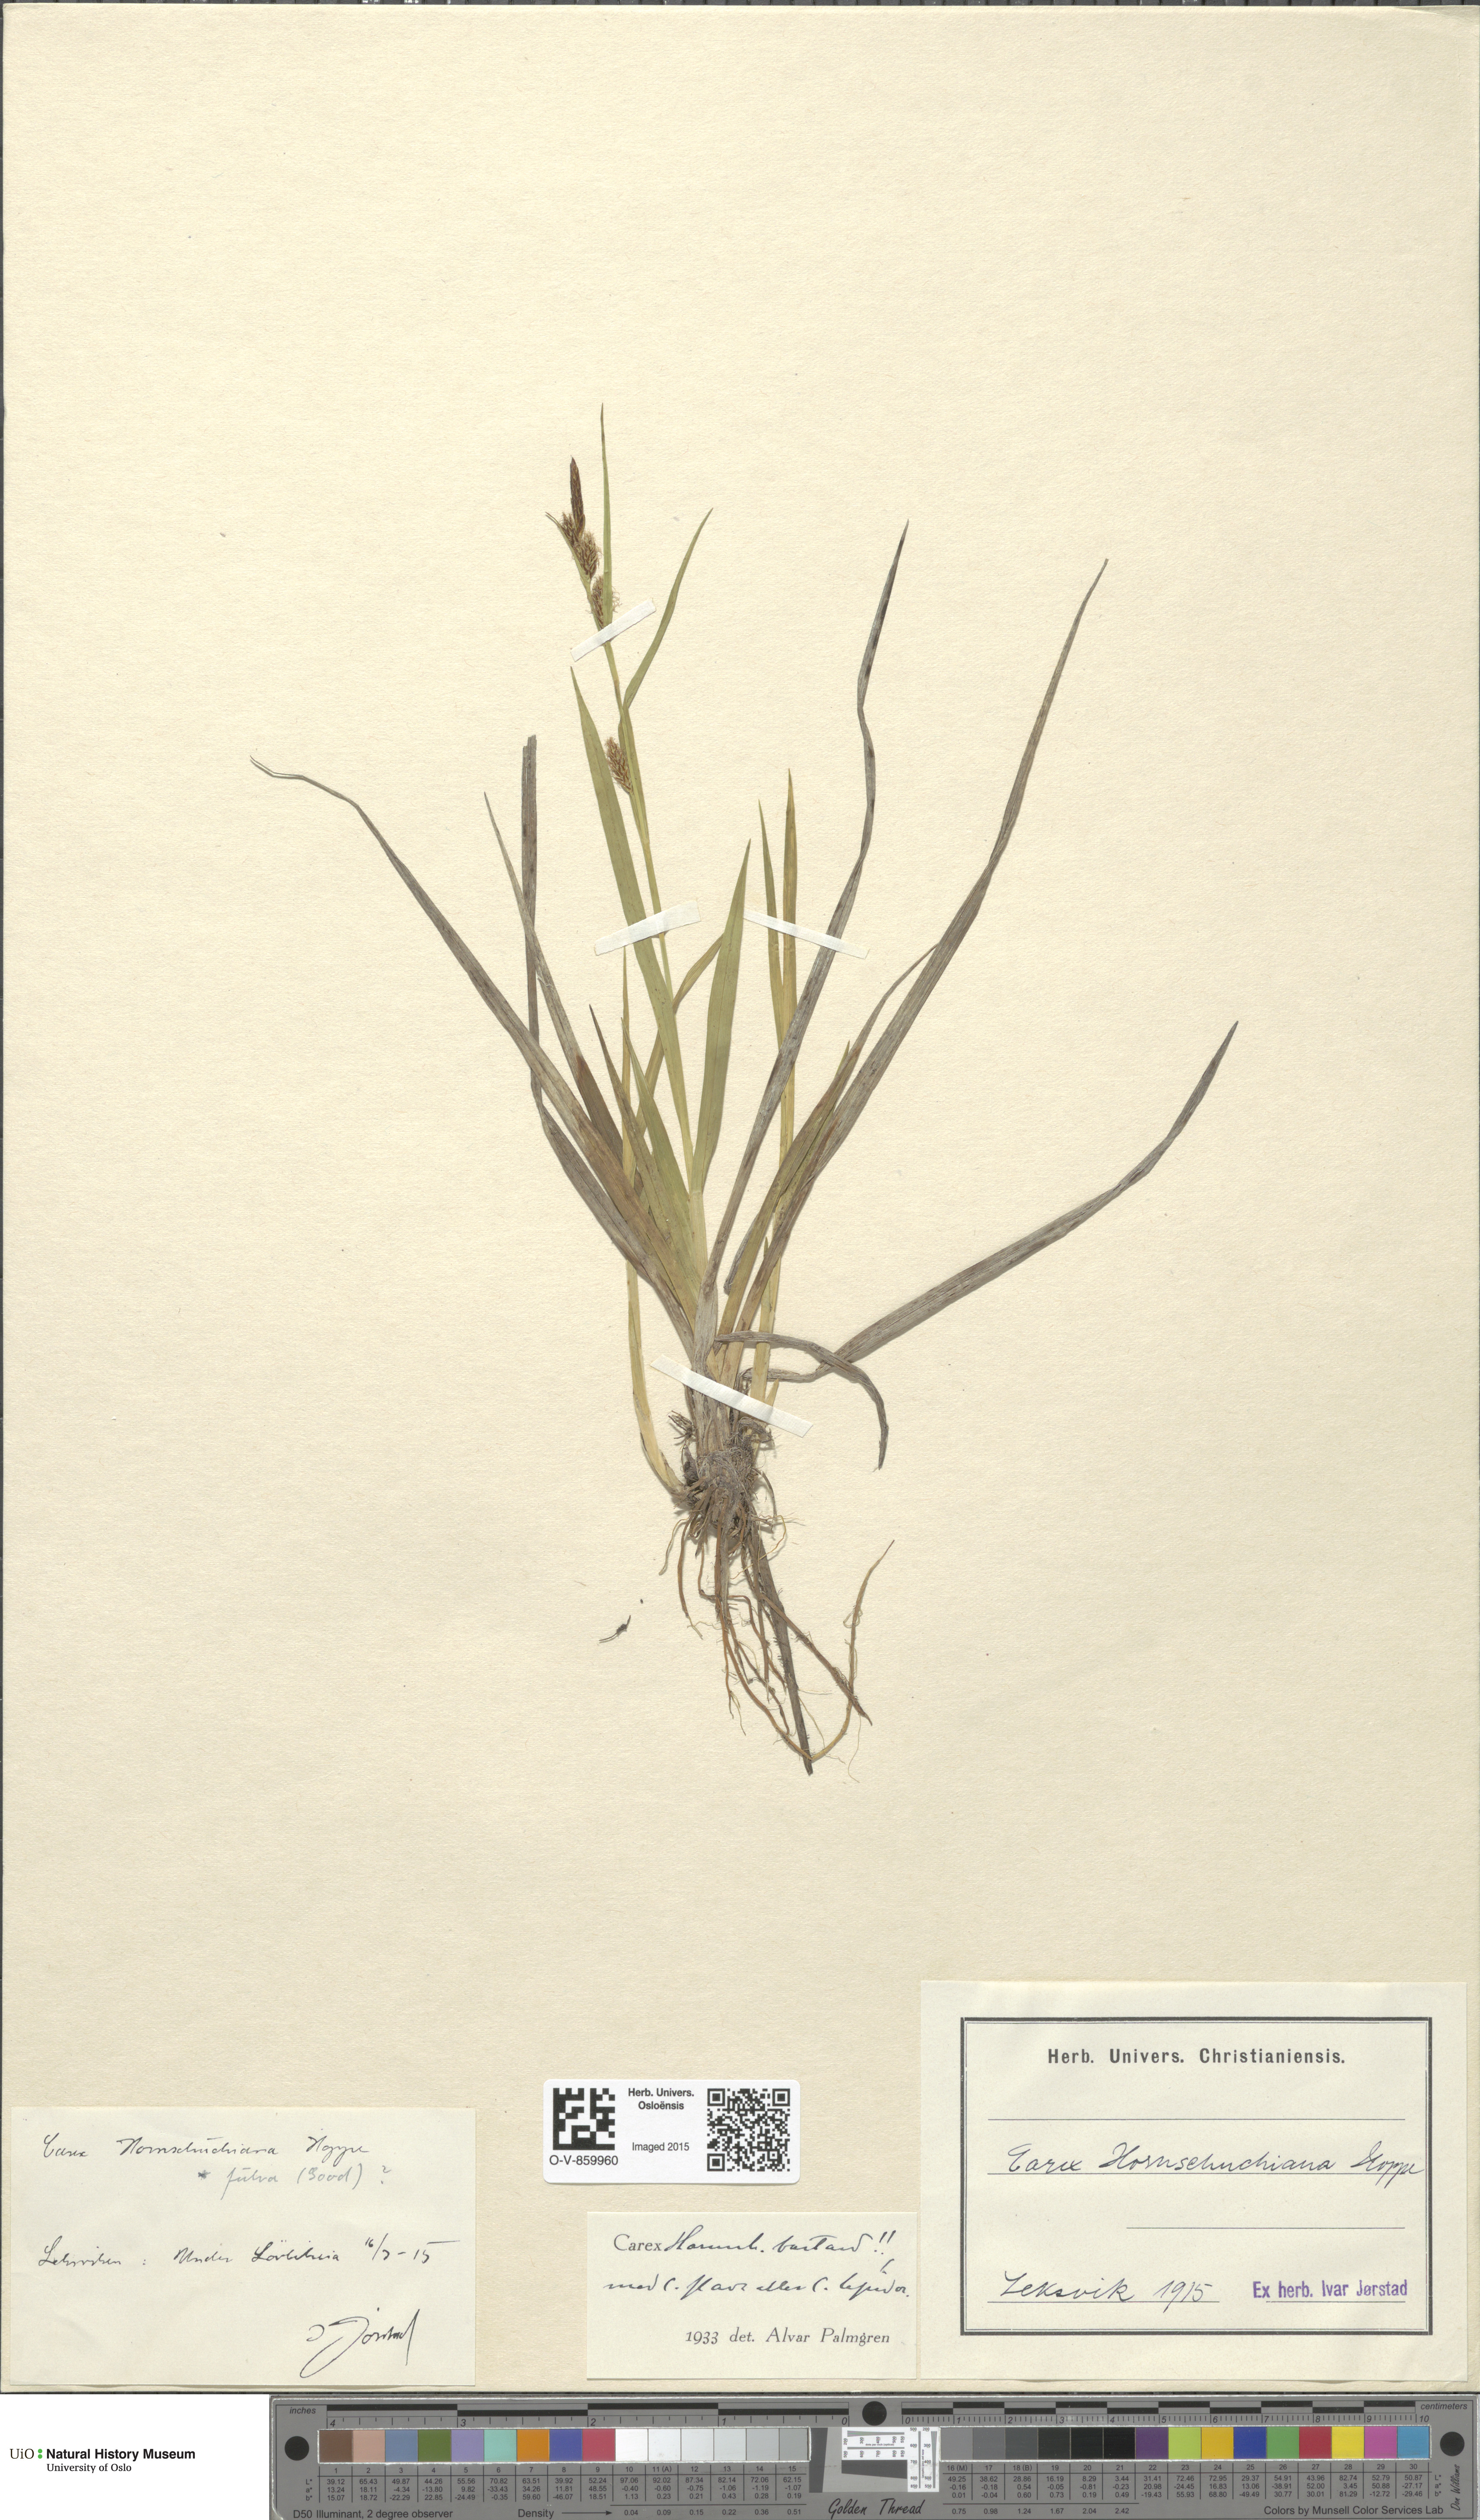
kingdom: Plantae
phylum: Tracheophyta
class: Liliopsida
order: Poales
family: Cyperaceae
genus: Carex
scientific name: Carex
